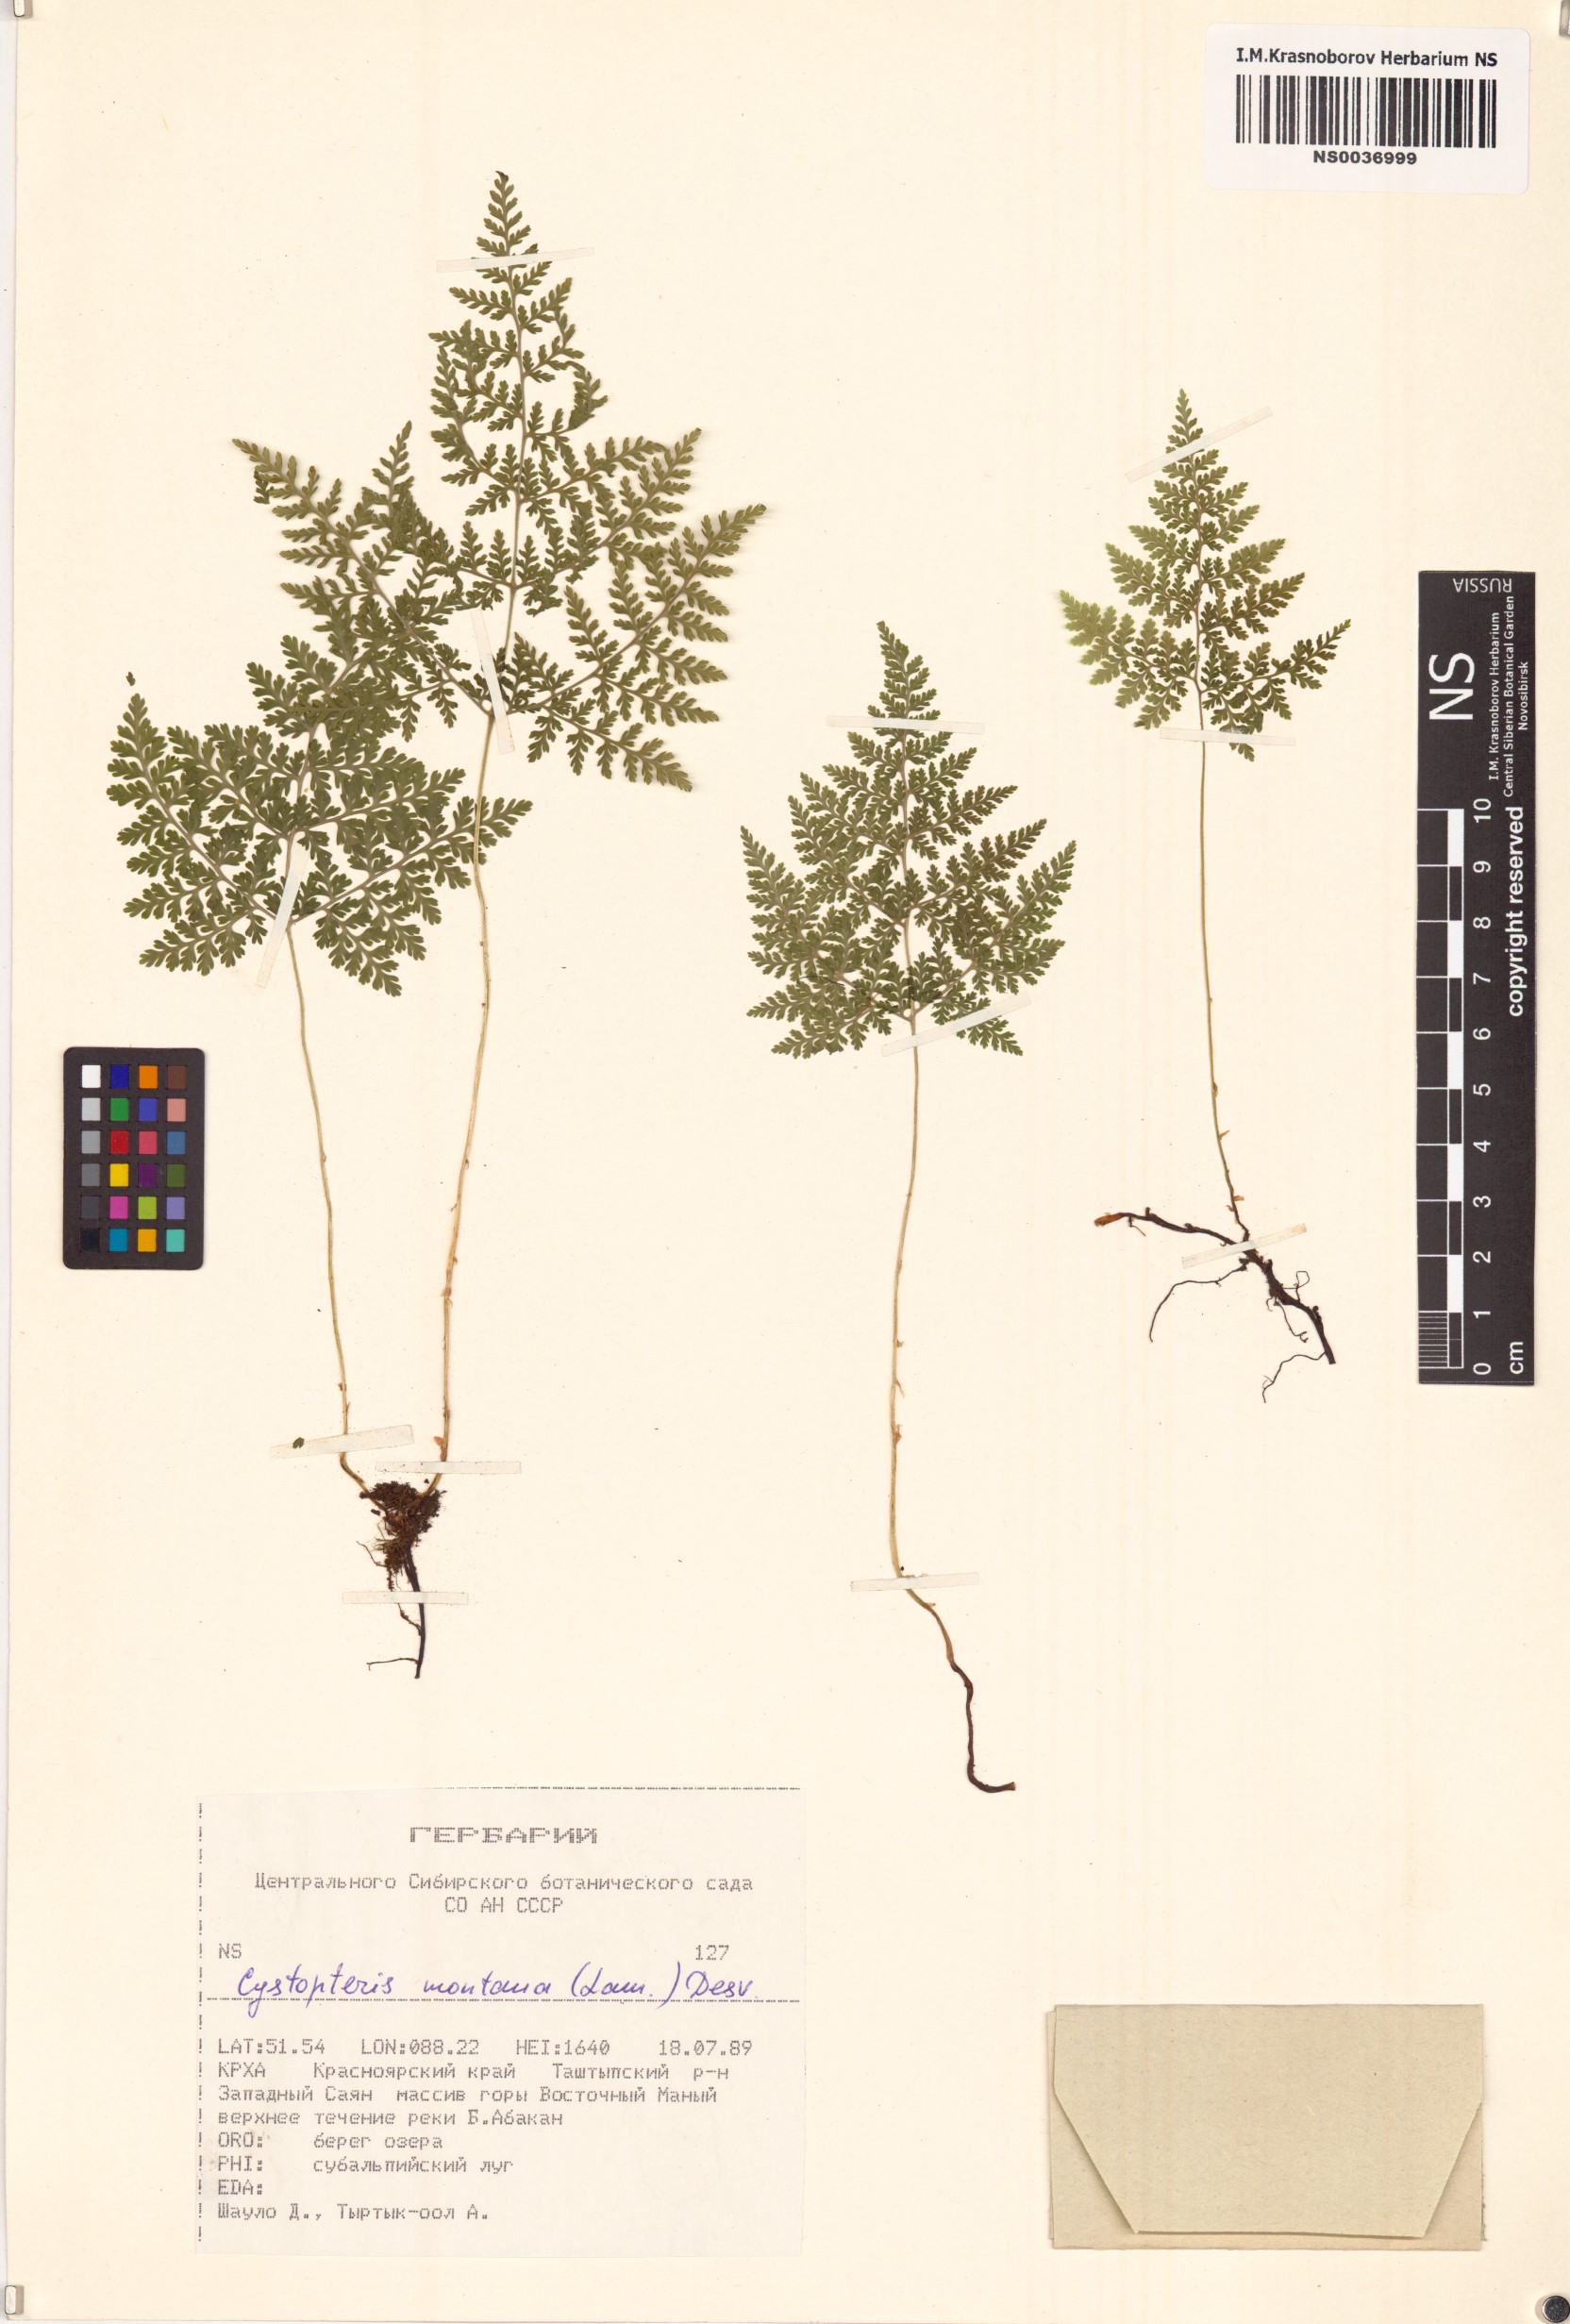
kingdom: Plantae
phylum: Tracheophyta
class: Polypodiopsida
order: Polypodiales
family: Cystopteridaceae
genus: Cystopteris
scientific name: Cystopteris montana
